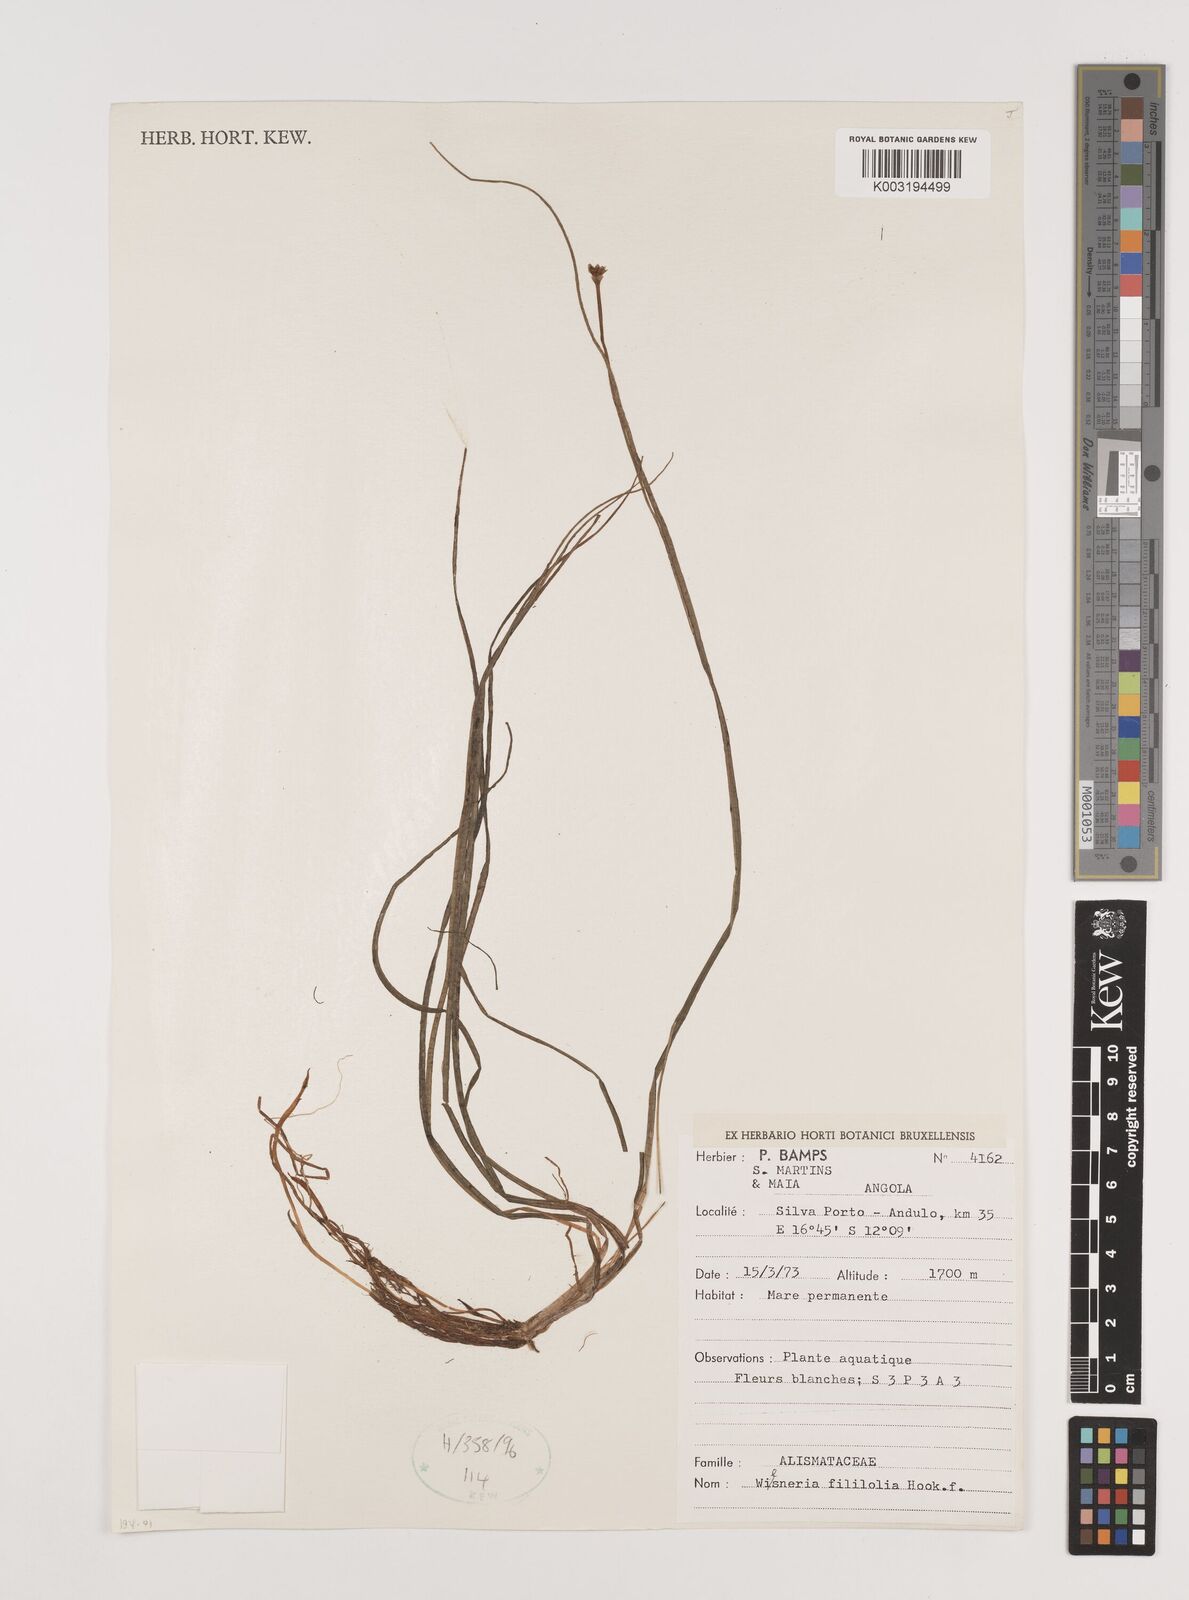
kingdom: Plantae
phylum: Tracheophyta
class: Liliopsida
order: Alismatales
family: Alismataceae
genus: Wiesneria
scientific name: Wiesneria filifolia
